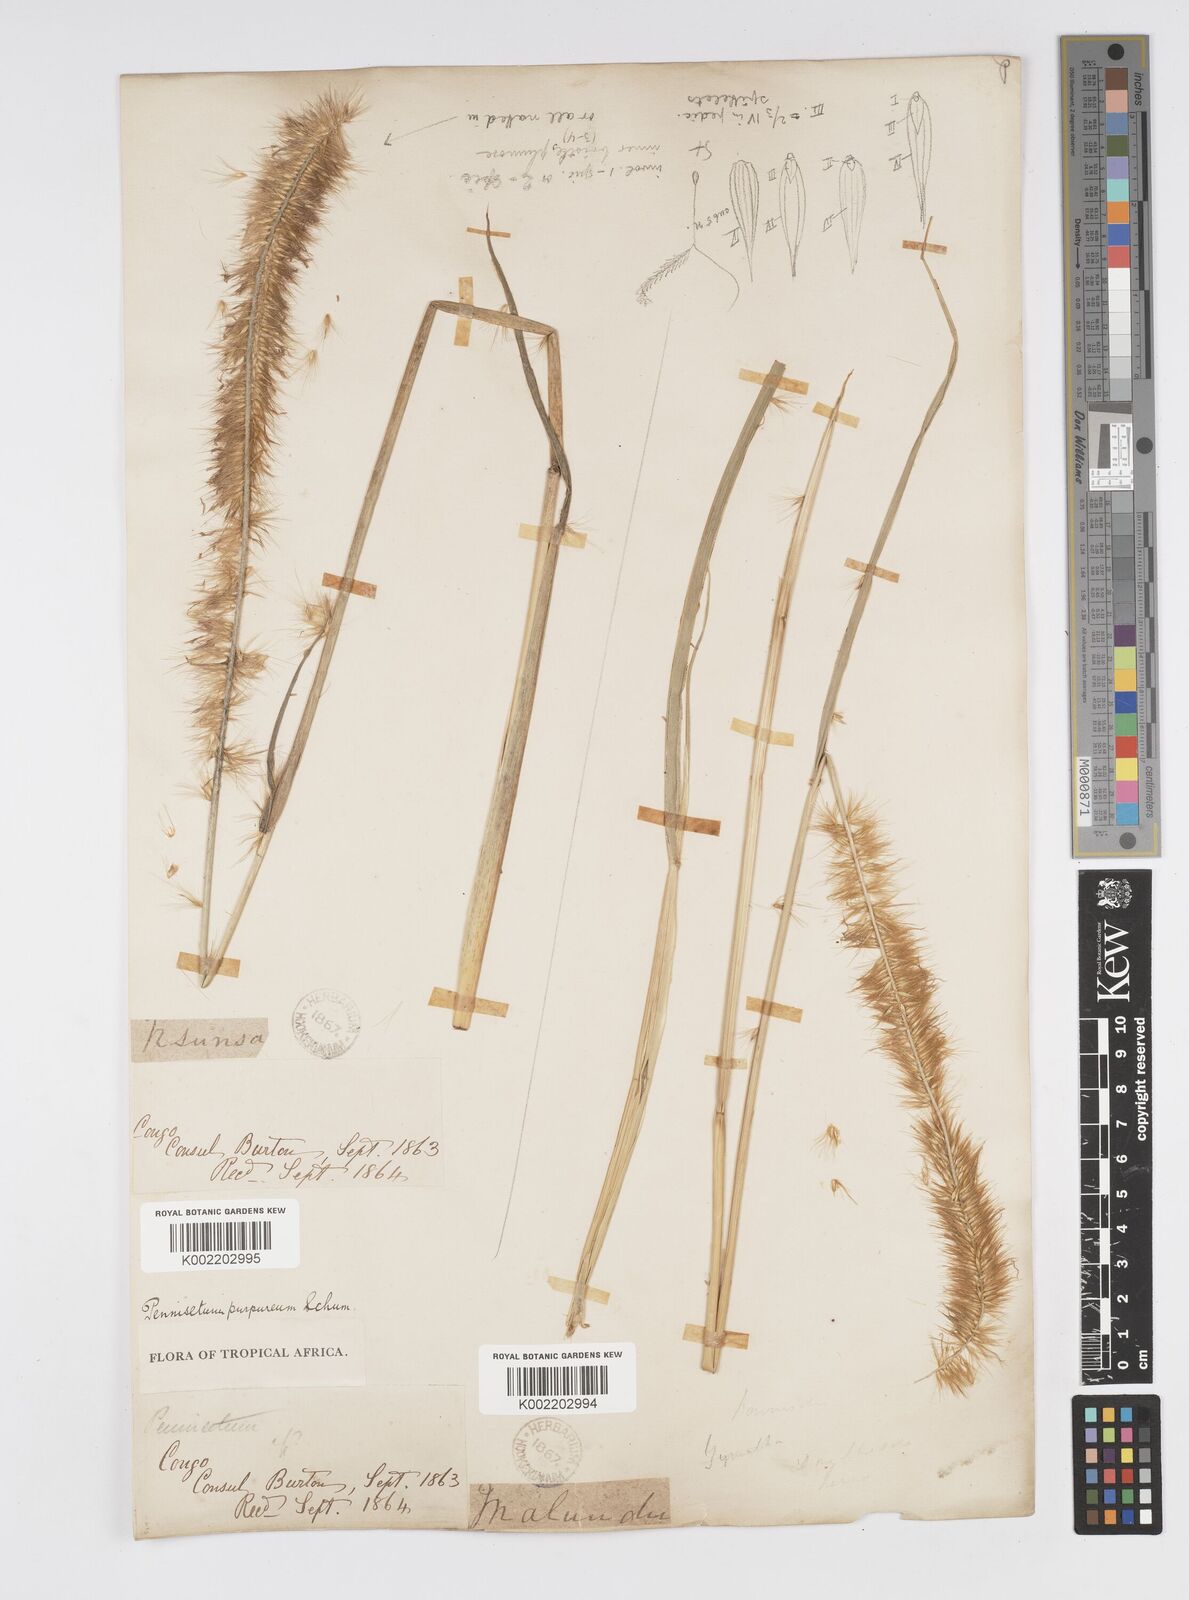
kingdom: Plantae
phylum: Tracheophyta
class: Liliopsida
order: Poales
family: Poaceae
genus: Cenchrus
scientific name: Cenchrus purpureus
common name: Elephant grass
